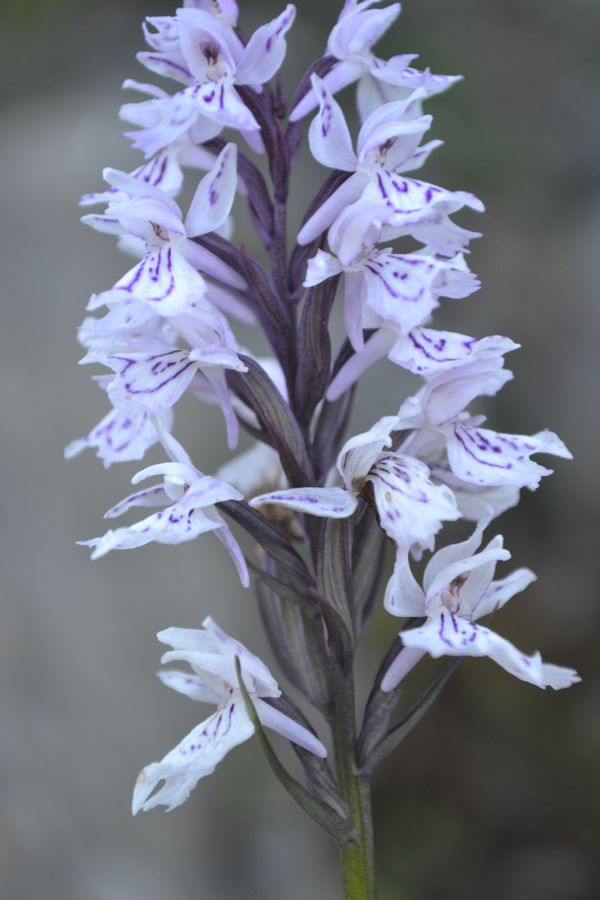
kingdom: Plantae
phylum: Tracheophyta
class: Liliopsida
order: Asparagales
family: Orchidaceae
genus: Dactylorhiza
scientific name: Dactylorhiza maculata
